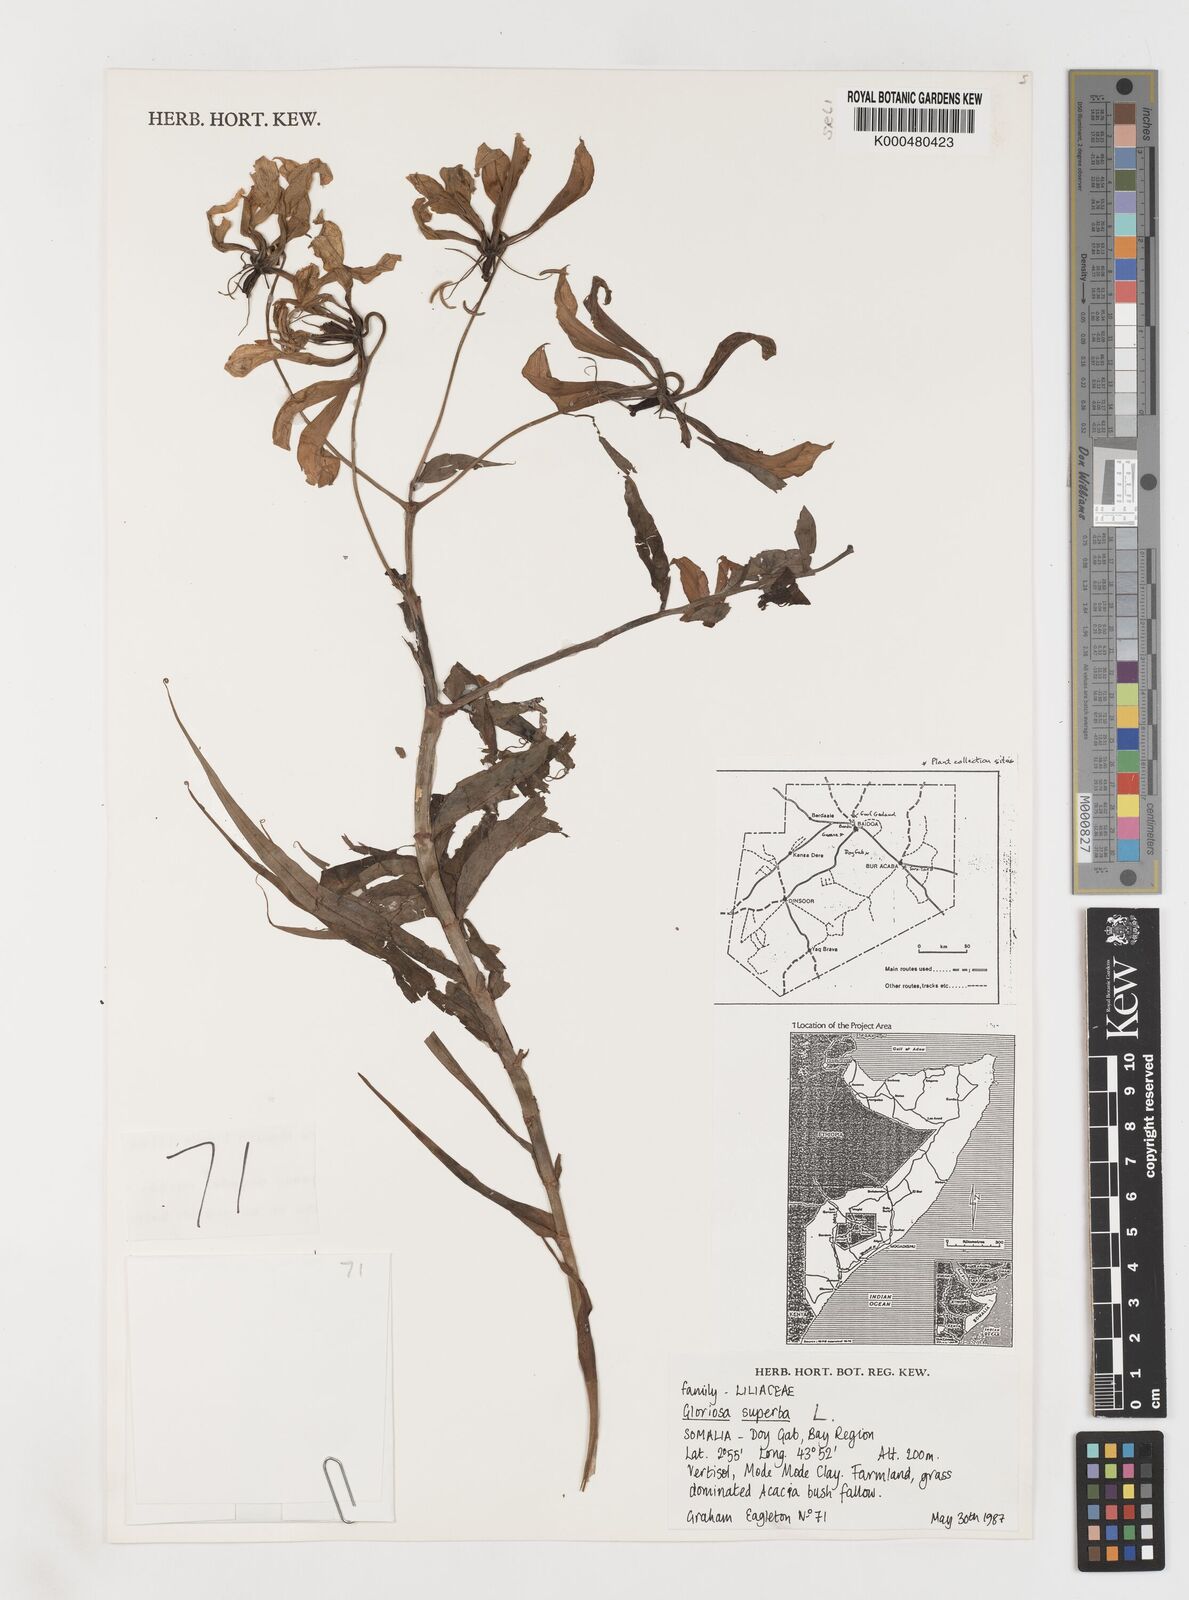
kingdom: Plantae
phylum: Tracheophyta
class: Liliopsida
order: Liliales
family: Colchicaceae
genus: Gloriosa
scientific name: Gloriosa superba
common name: Flame lily
